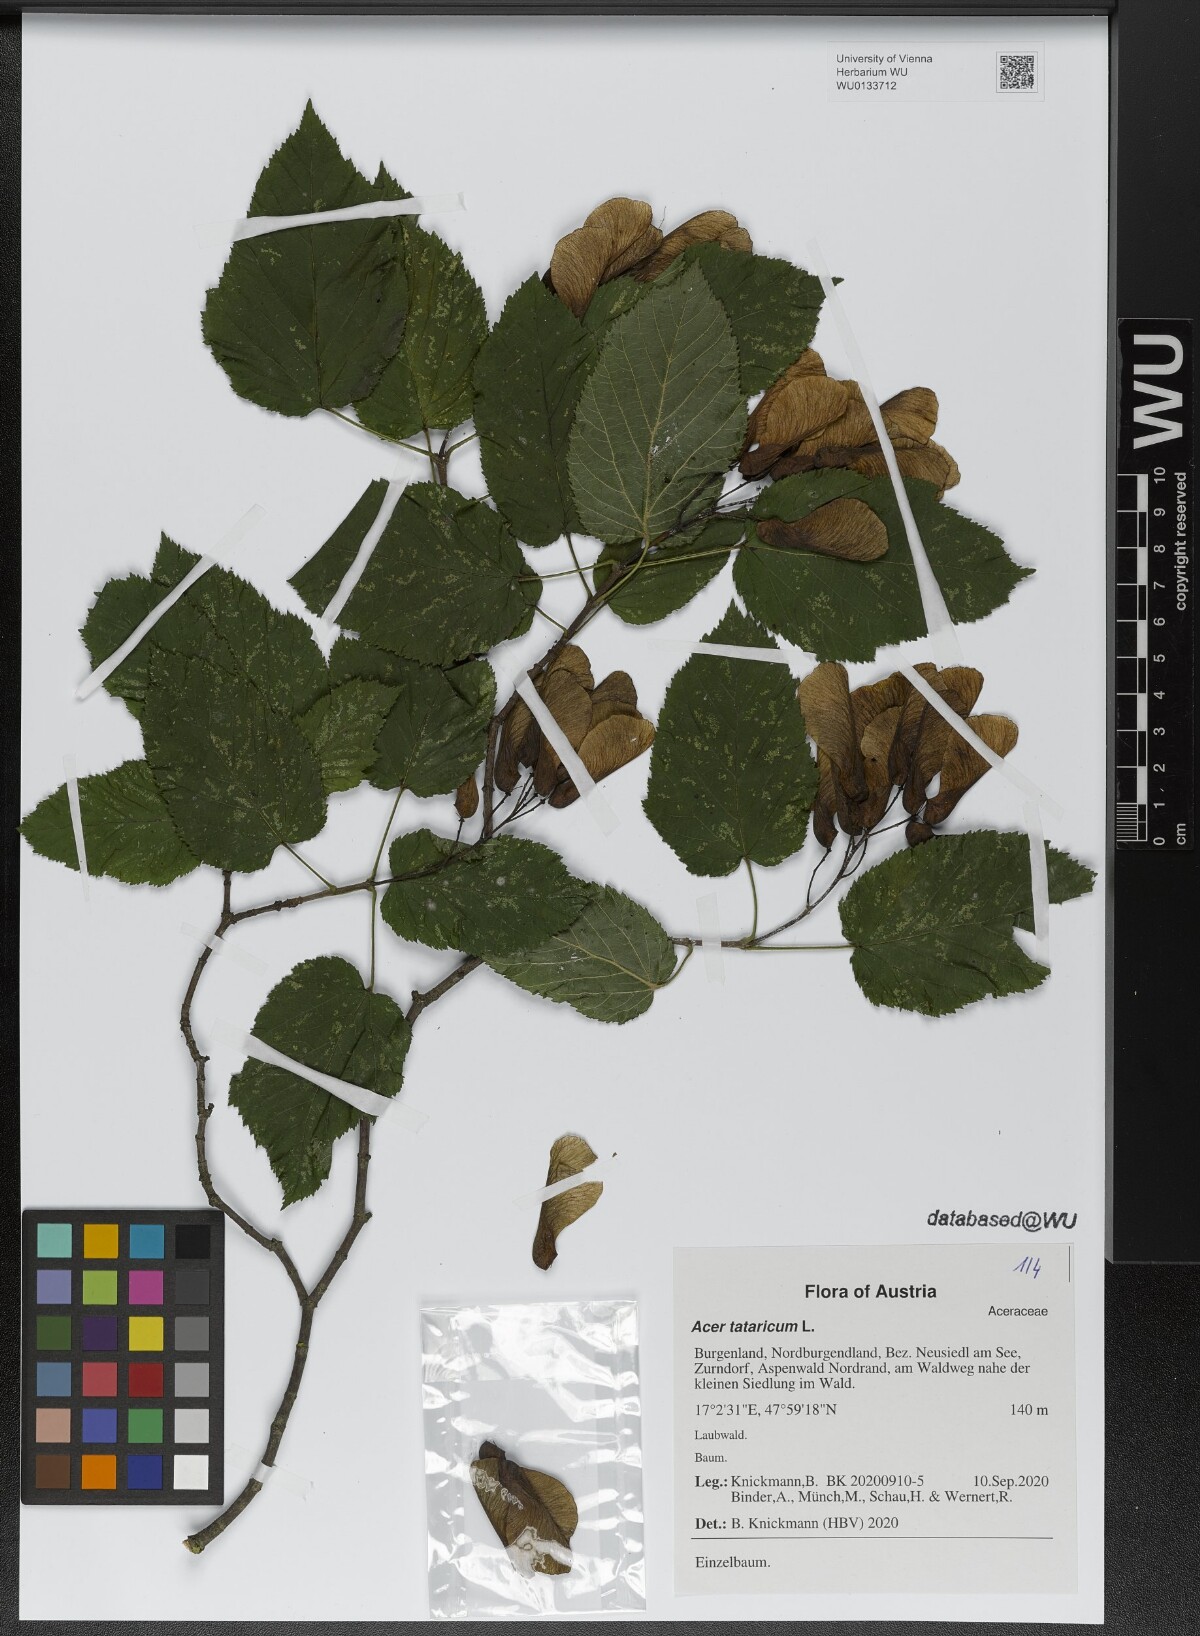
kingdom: Plantae
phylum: Tracheophyta
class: Magnoliopsida
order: Sapindales
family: Sapindaceae
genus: Acer
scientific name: Acer tataricum
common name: Tartar maple
